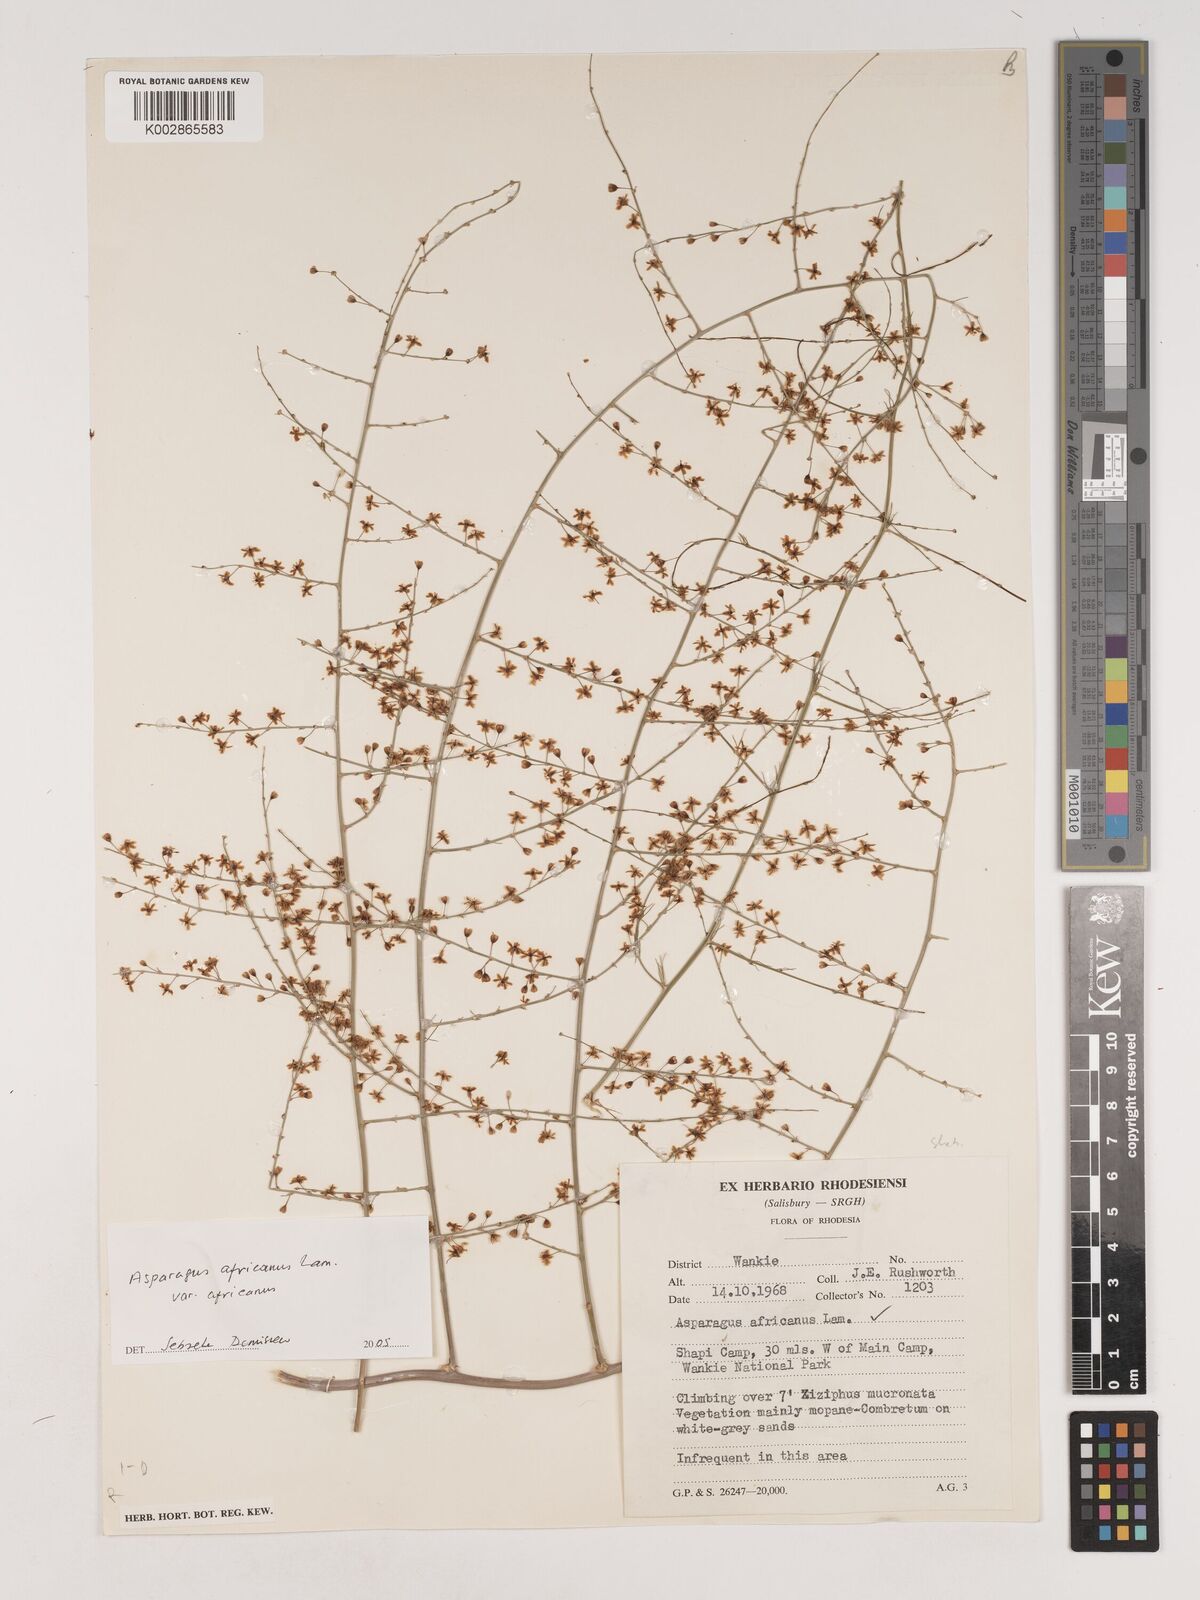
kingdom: Plantae
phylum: Tracheophyta
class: Liliopsida
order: Asparagales
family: Asparagaceae
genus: Asparagus
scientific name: Asparagus africanus
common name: Asparagus-fern
